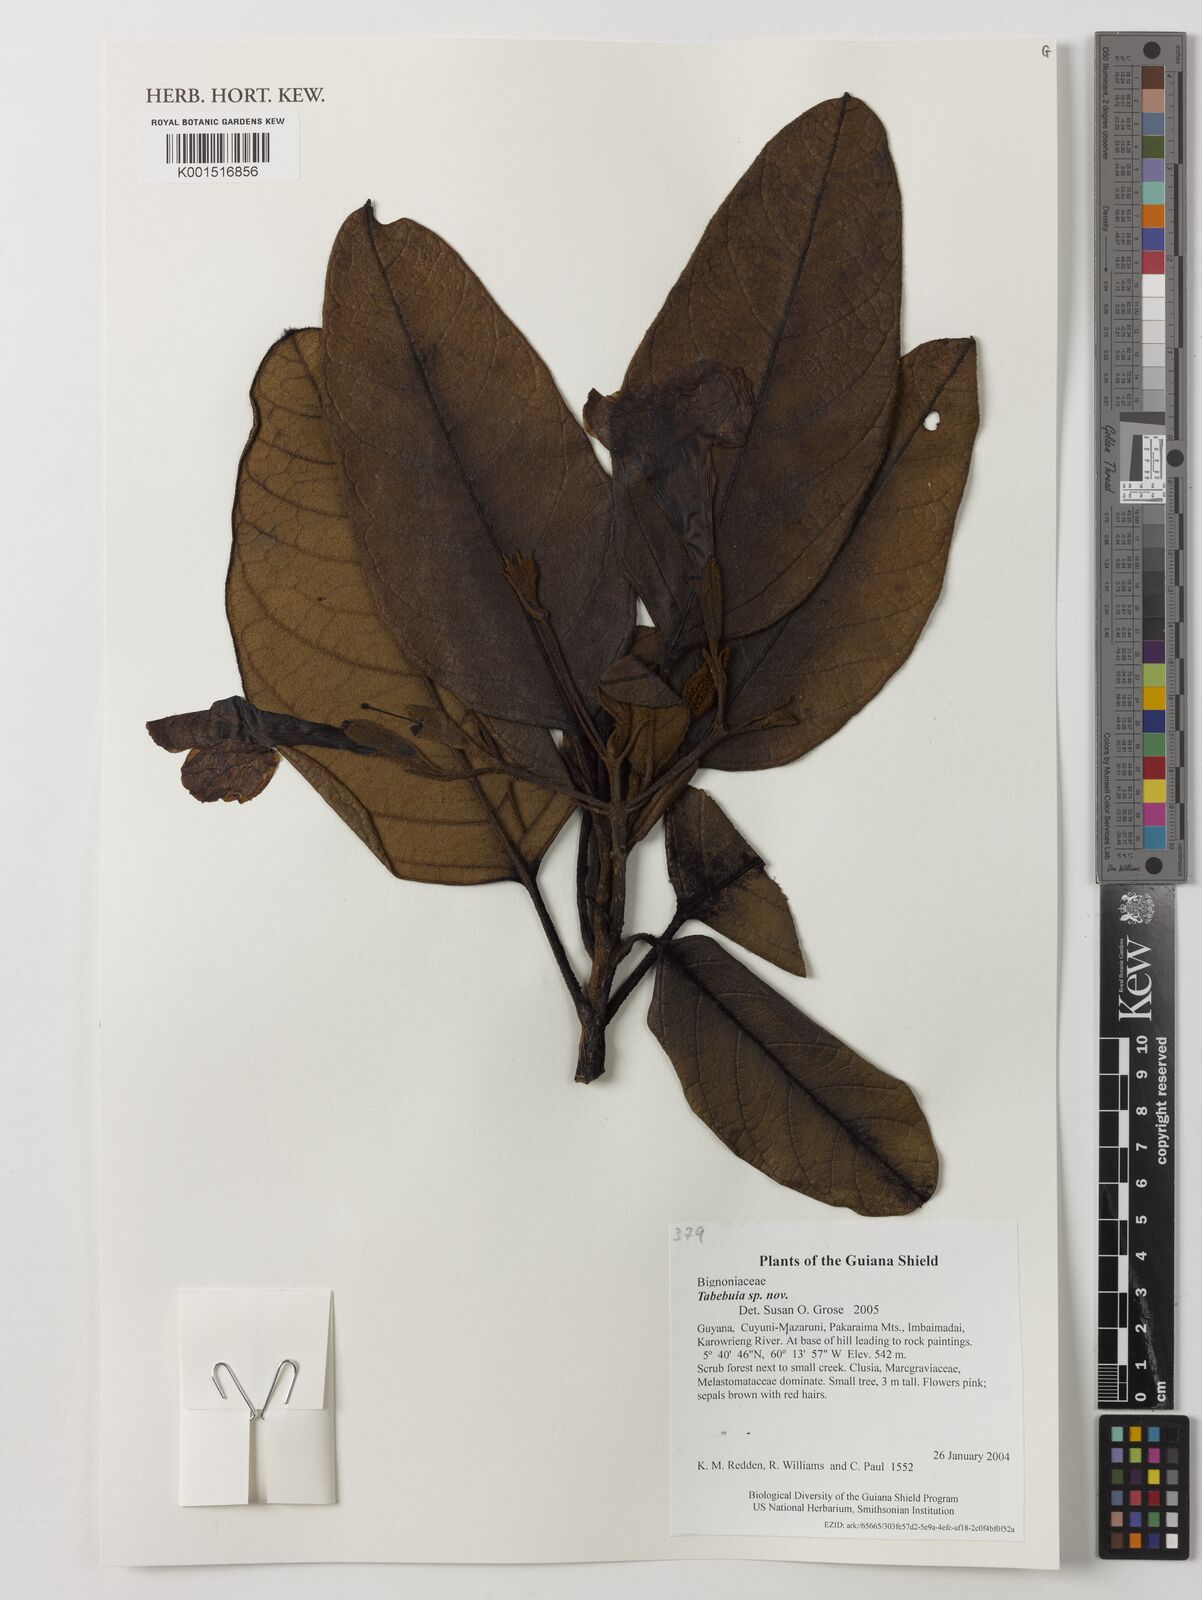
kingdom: Plantae
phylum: Tracheophyta
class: Magnoliopsida
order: Lamiales
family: Bignoniaceae
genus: Tabebuia
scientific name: Tabebuia
